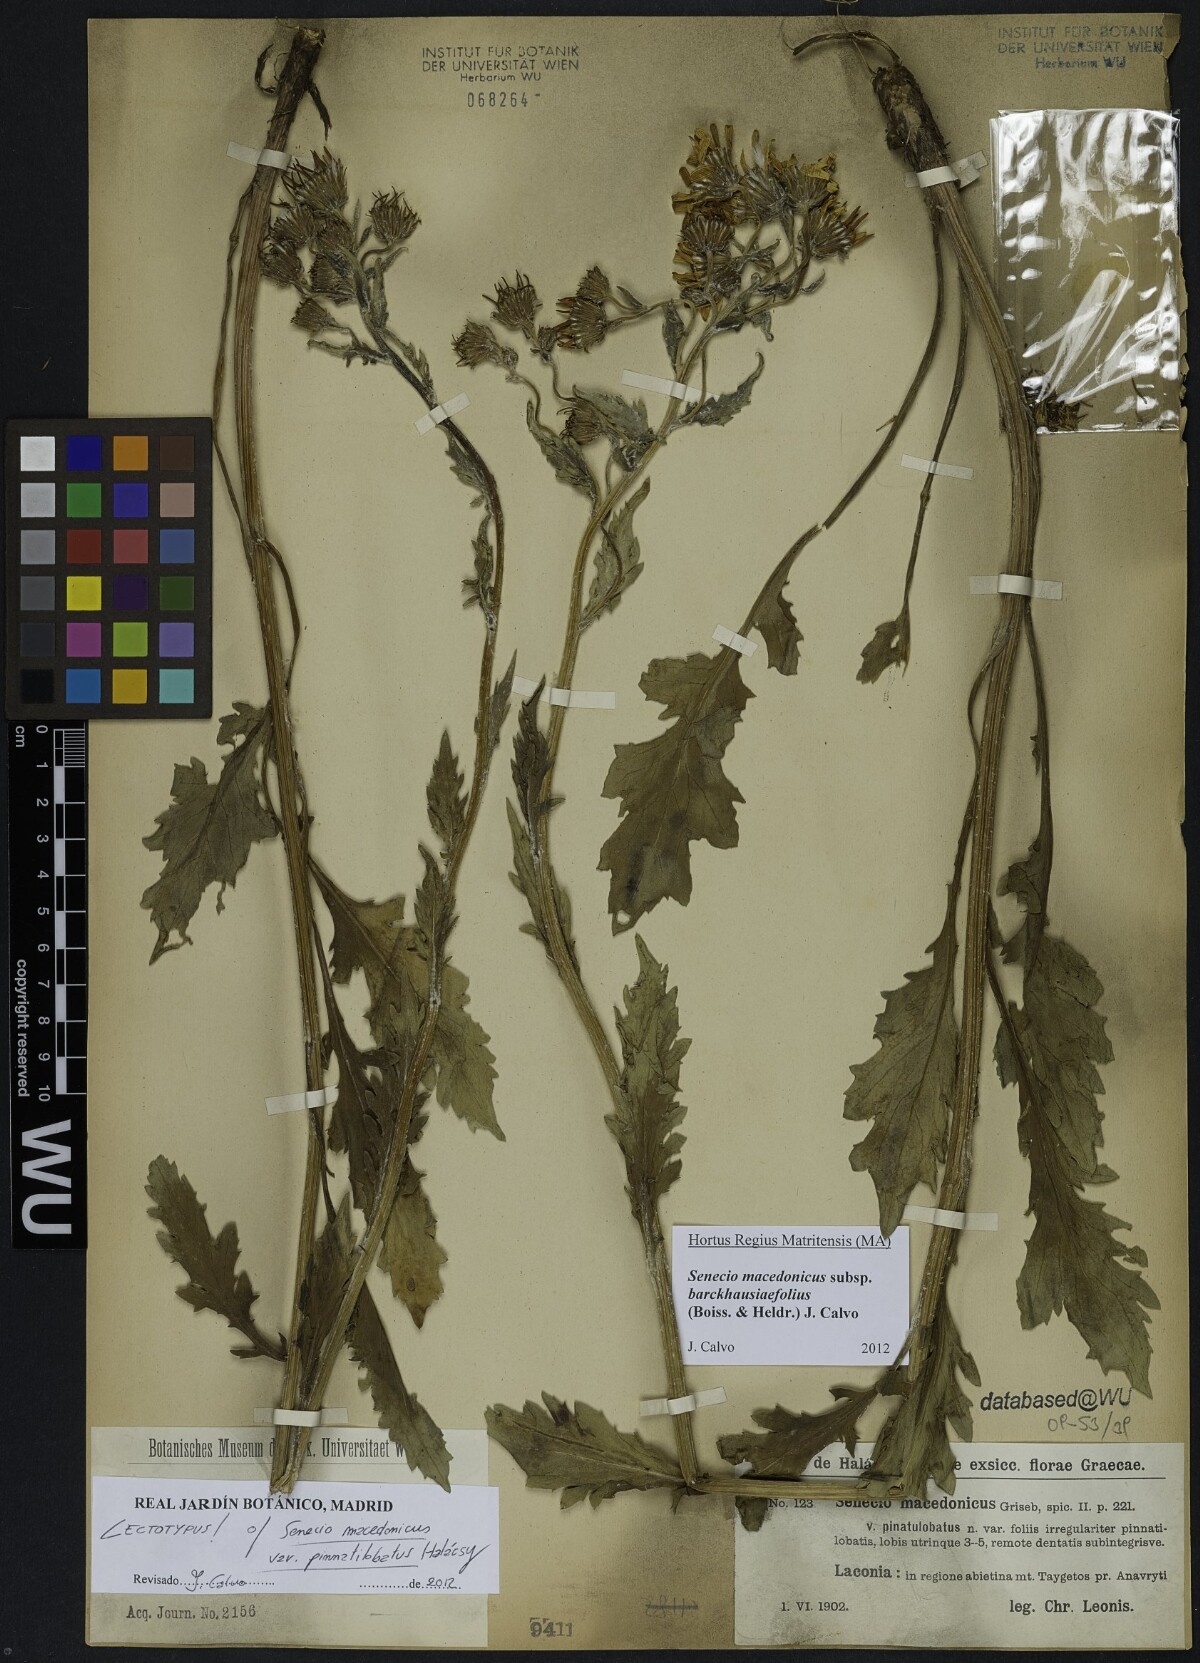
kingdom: Plantae
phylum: Tracheophyta
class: Magnoliopsida
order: Asterales
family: Asteraceae
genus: Senecio
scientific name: Senecio macedonicus
